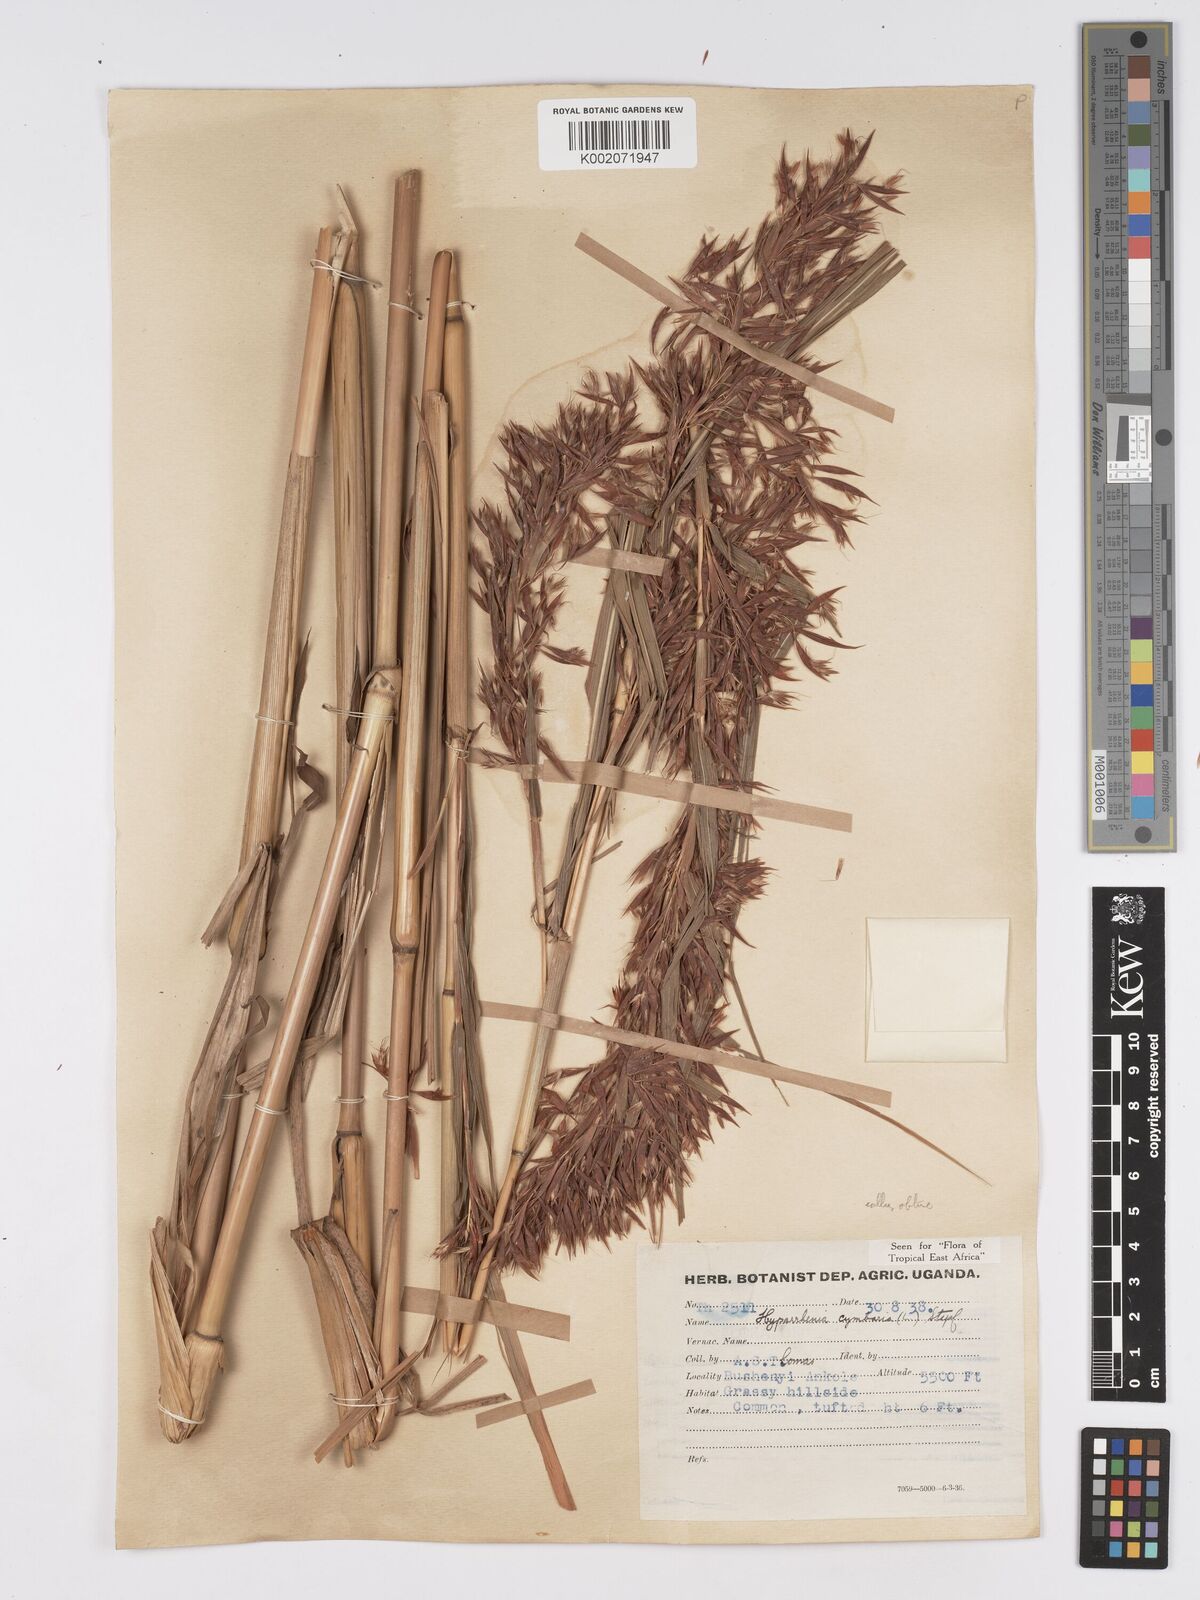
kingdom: Plantae
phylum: Tracheophyta
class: Liliopsida
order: Poales
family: Poaceae
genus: Hyparrhenia
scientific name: Hyparrhenia cymbaria
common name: Boat thatching grass
